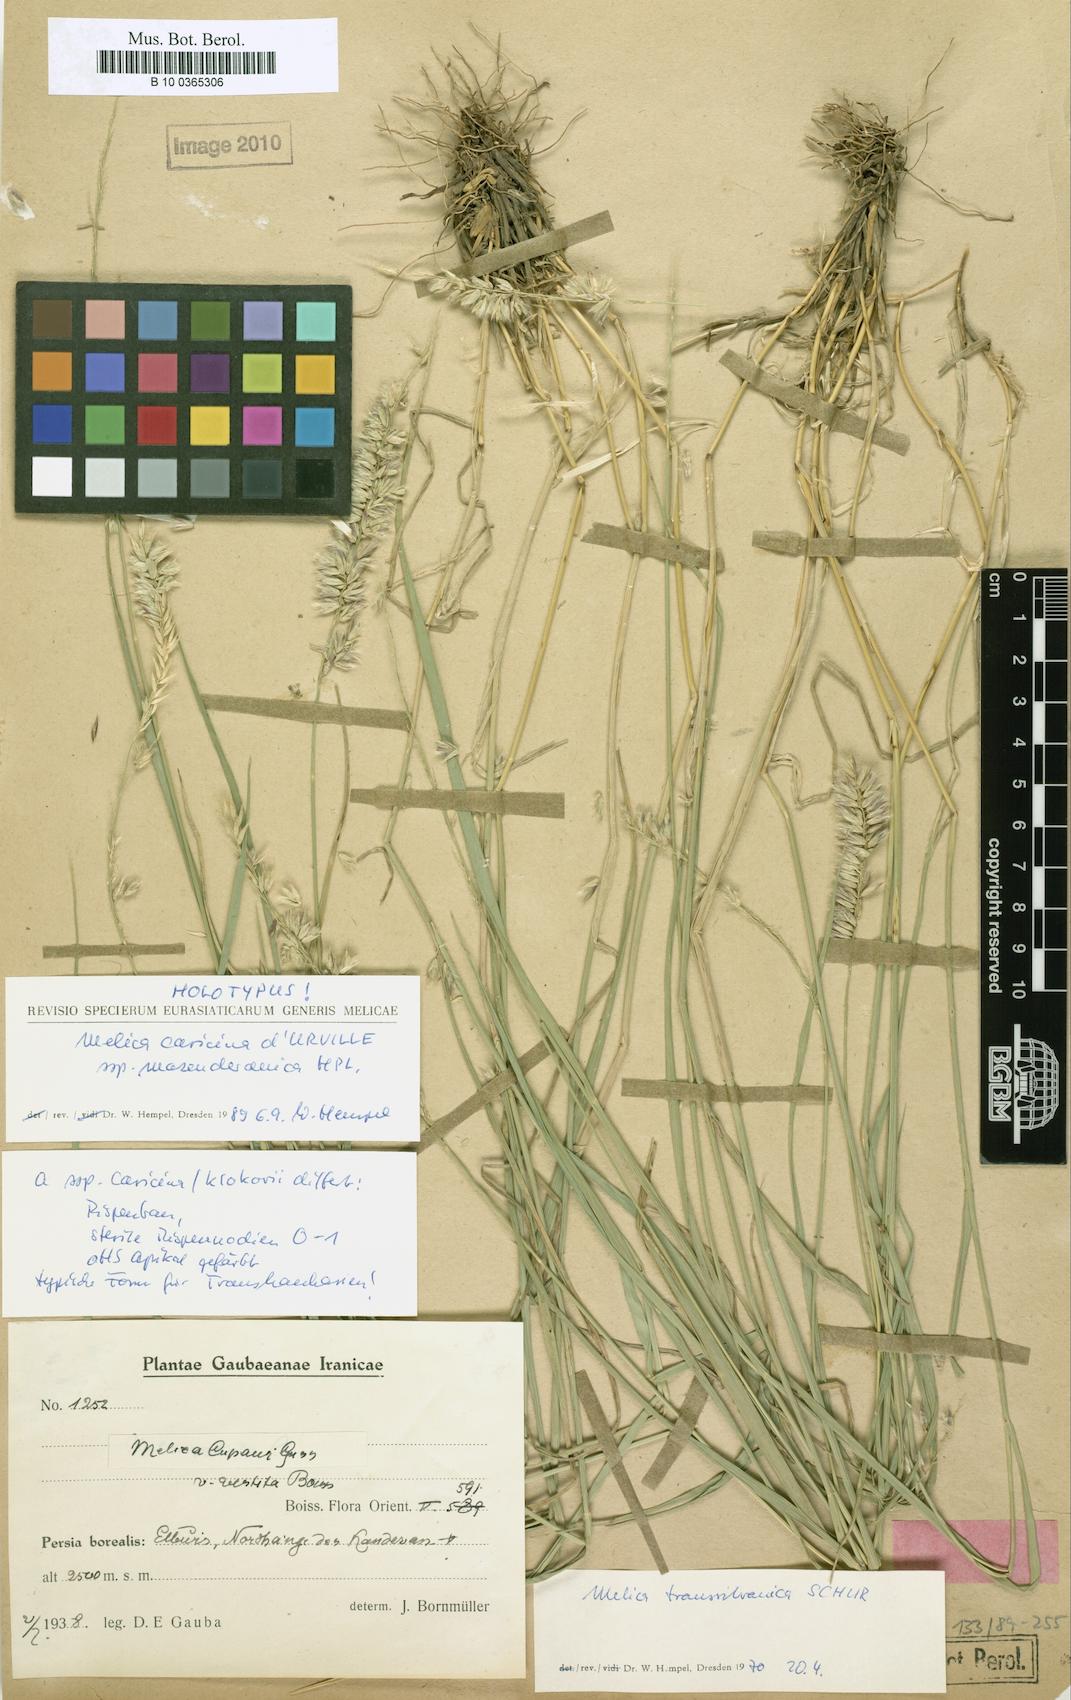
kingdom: Plantae
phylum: Tracheophyta
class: Liliopsida
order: Poales
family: Poaceae
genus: Melica
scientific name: Melica transsilvanica
